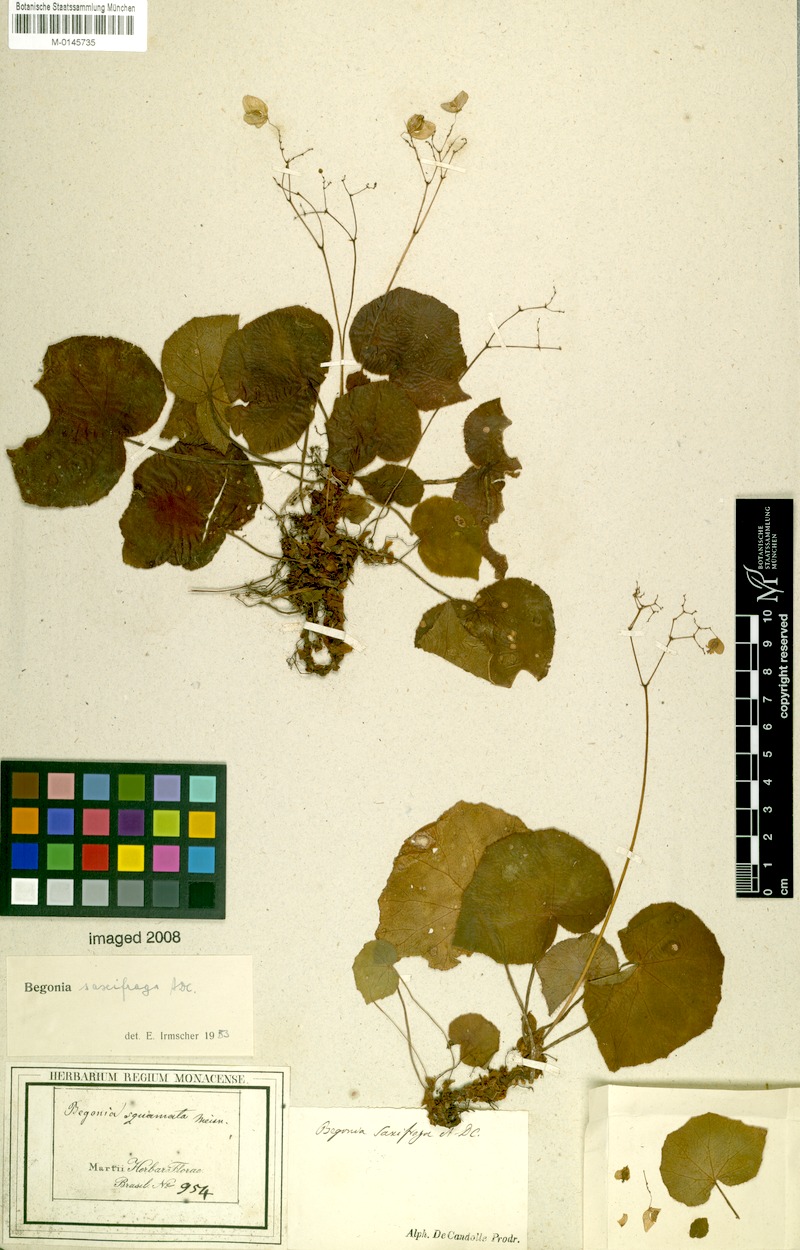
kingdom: Plantae
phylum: Tracheophyta
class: Magnoliopsida
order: Cucurbitales
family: Begoniaceae
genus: Begonia
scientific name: Begonia saxifraga
